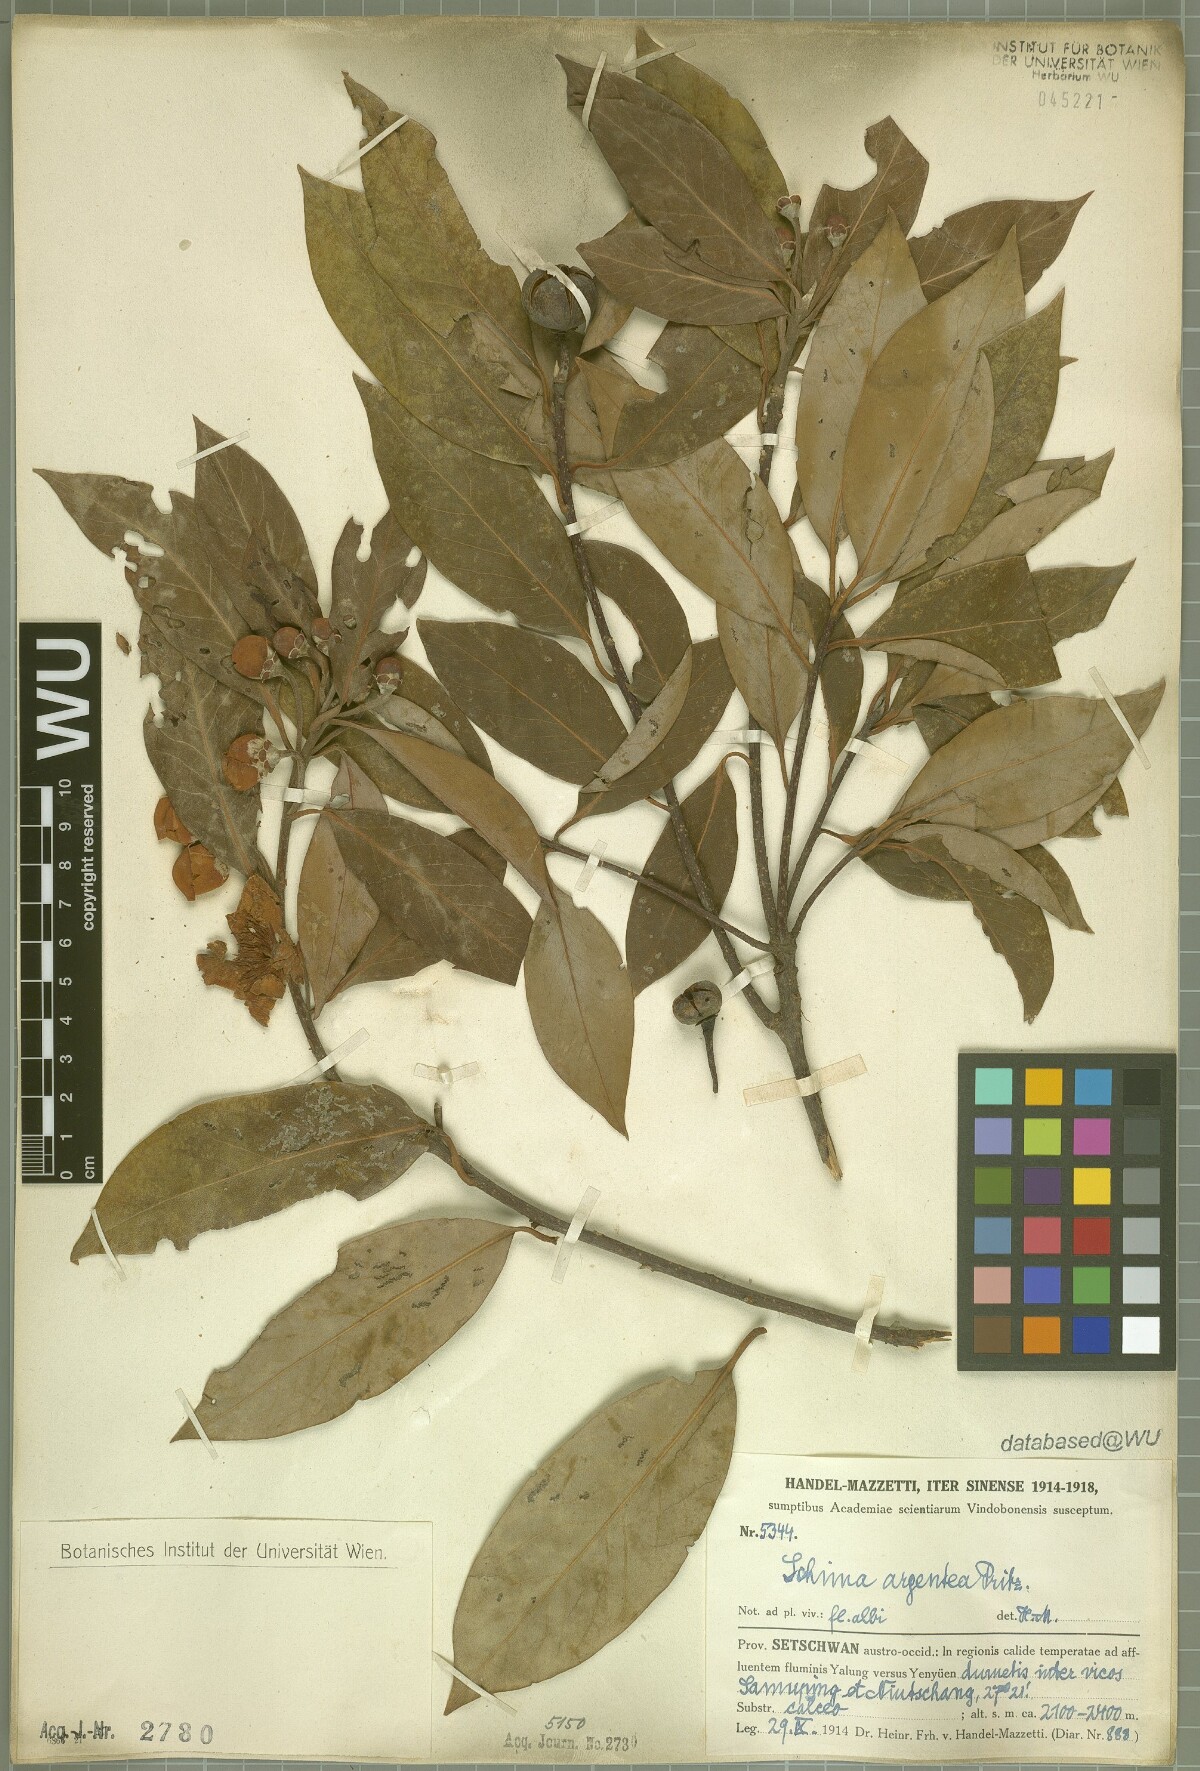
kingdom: Plantae
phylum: Tracheophyta
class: Magnoliopsida
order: Ericales
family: Theaceae
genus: Schima
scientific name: Schima argentea
